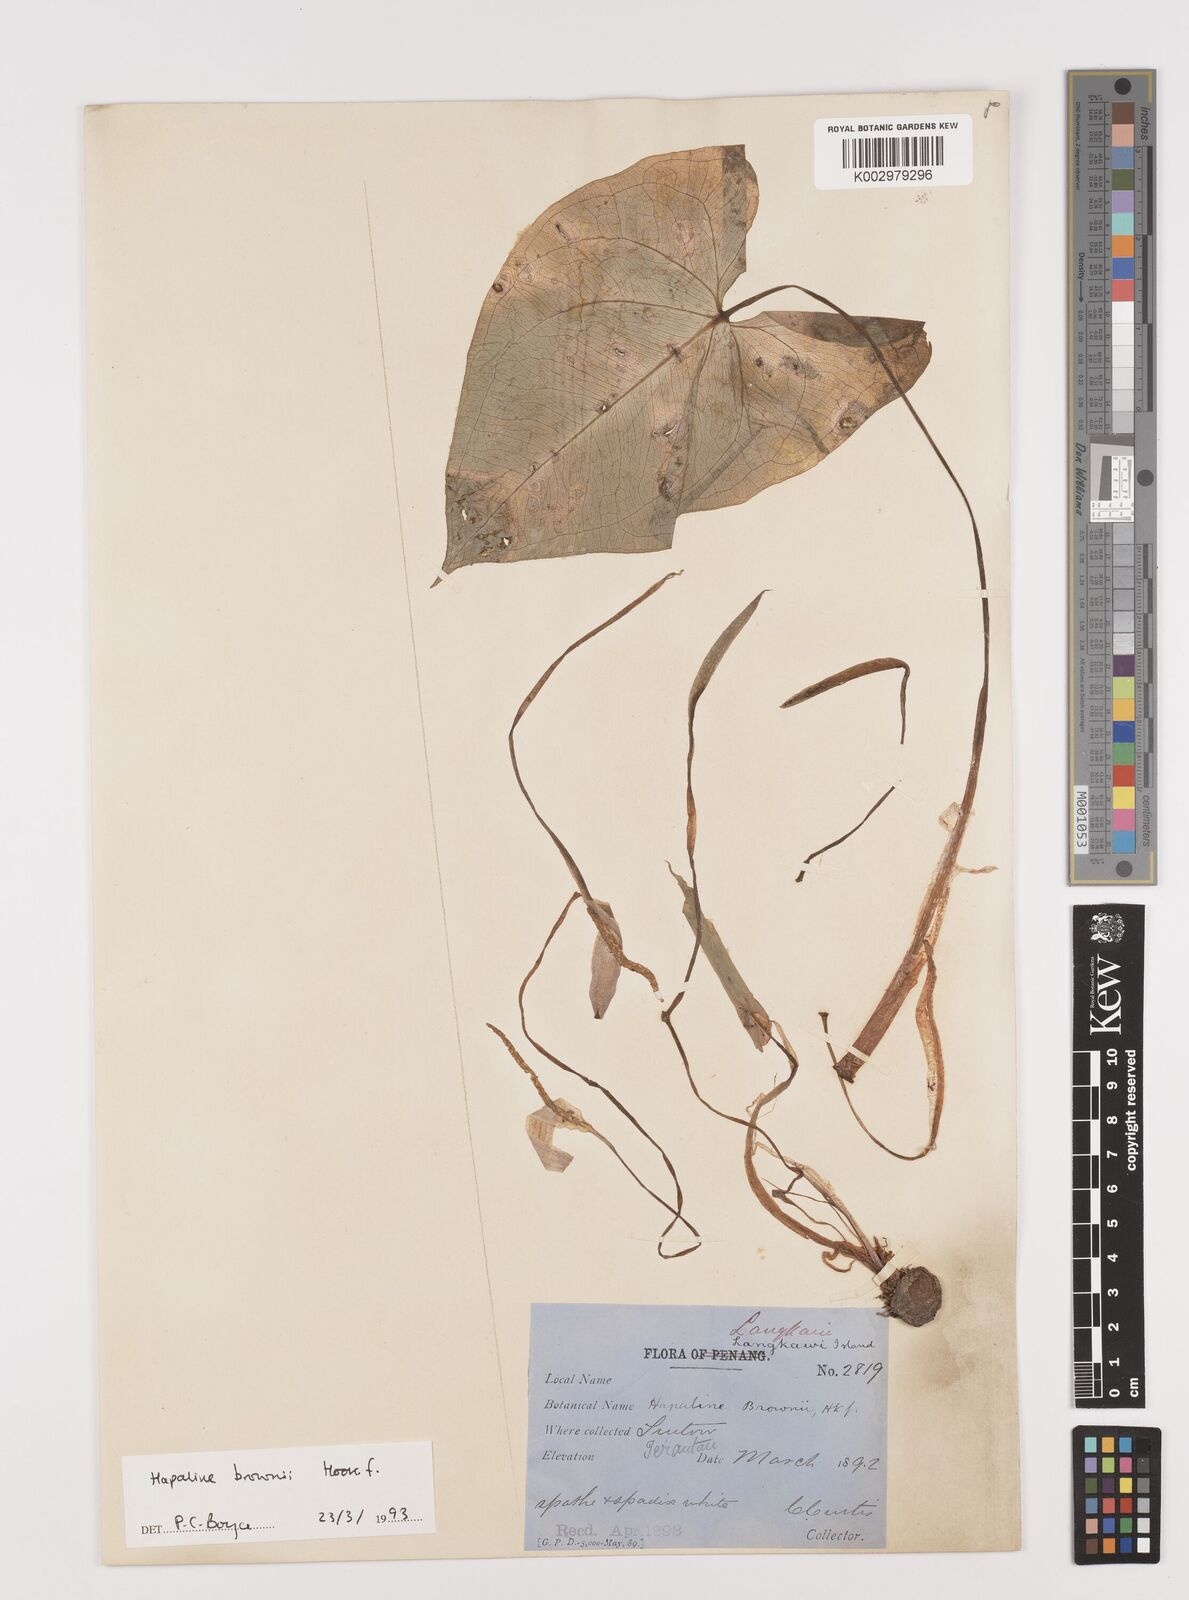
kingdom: Plantae
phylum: Tracheophyta
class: Liliopsida
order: Alismatales
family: Araceae
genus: Hapaline
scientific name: Hapaline brownii
